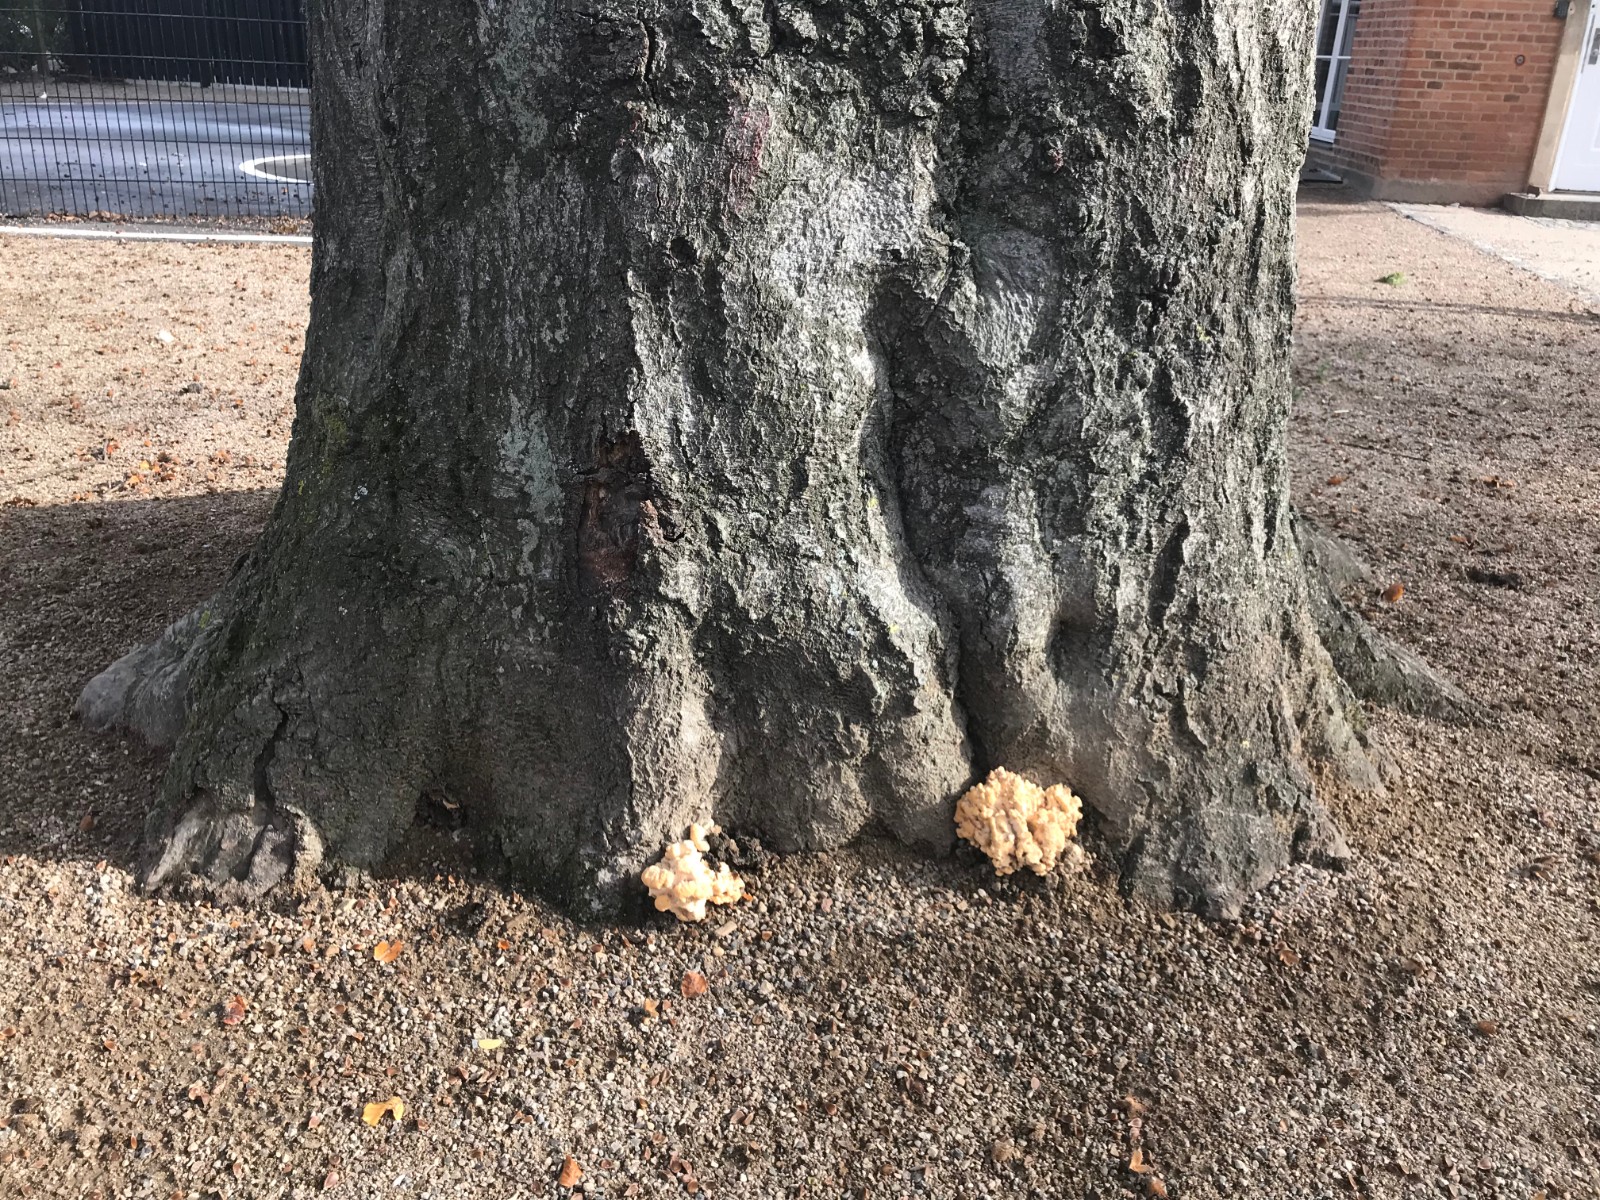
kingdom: Fungi
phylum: Basidiomycota
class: Agaricomycetes
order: Polyporales
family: Meripilaceae
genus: Meripilus
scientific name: Meripilus giganteus
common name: kæmpeporesvamp
